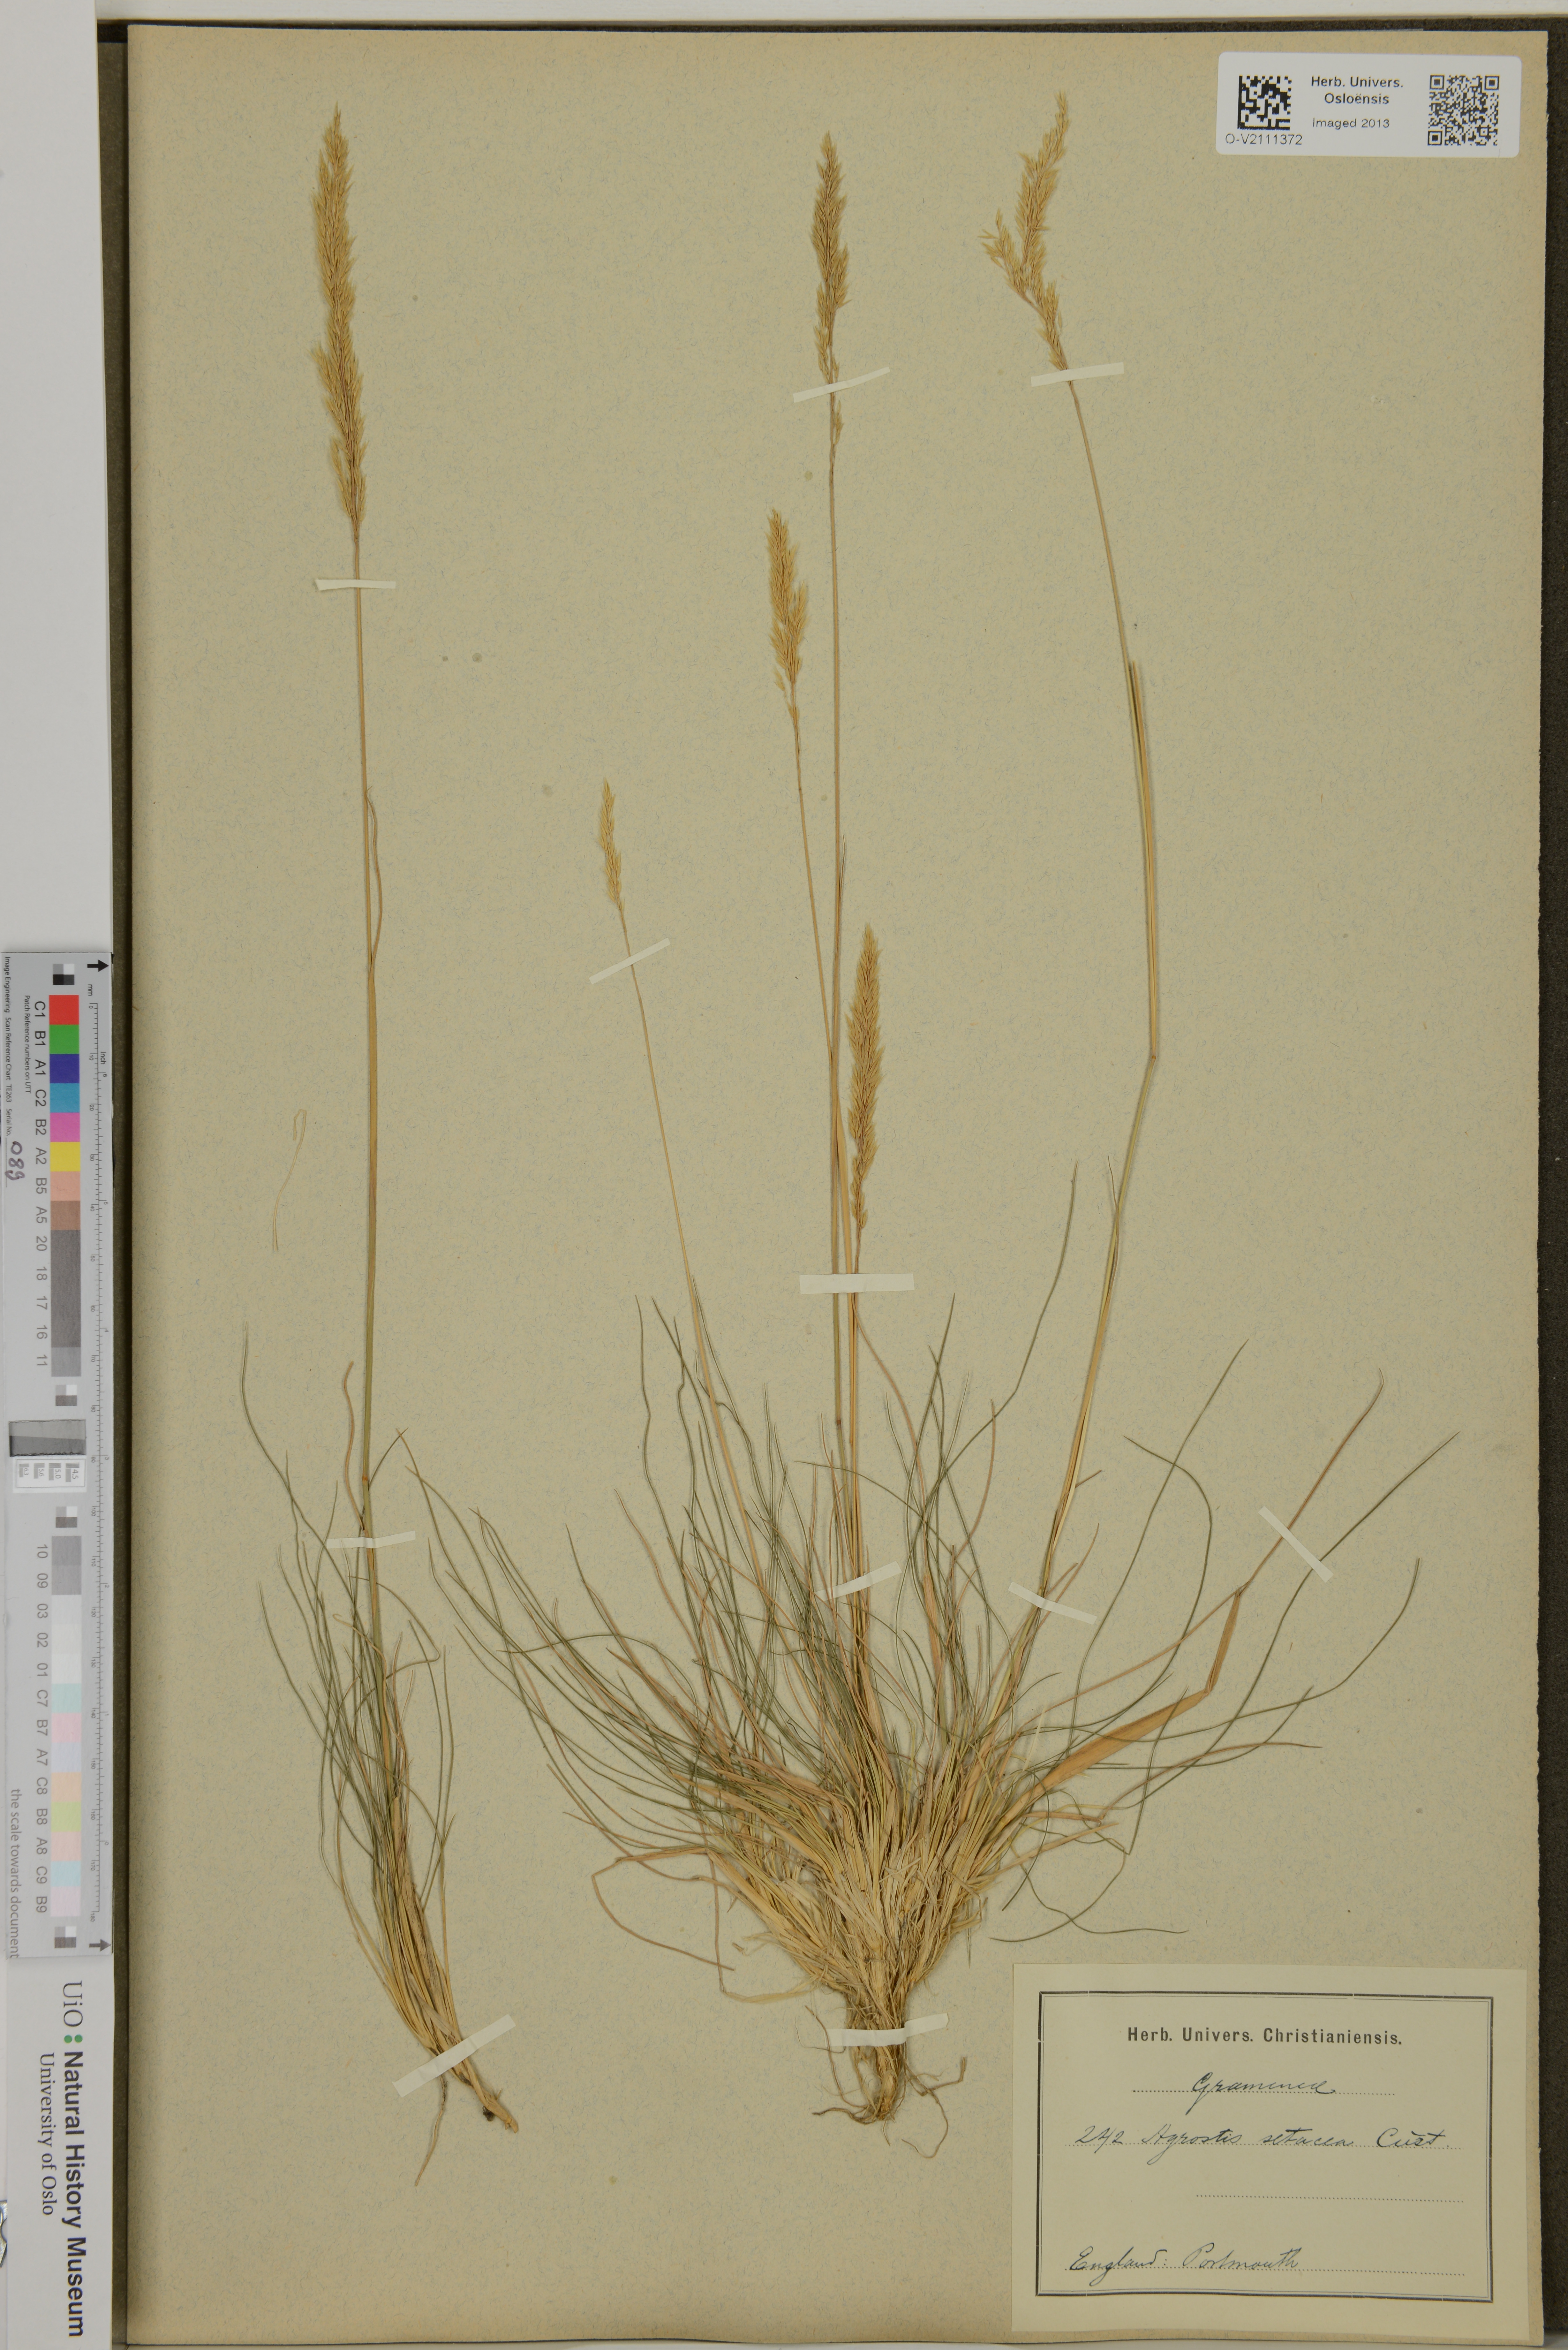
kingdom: Plantae
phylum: Tracheophyta
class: Liliopsida
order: Poales
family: Poaceae
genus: Agrostis
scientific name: Agrostis rupestris
